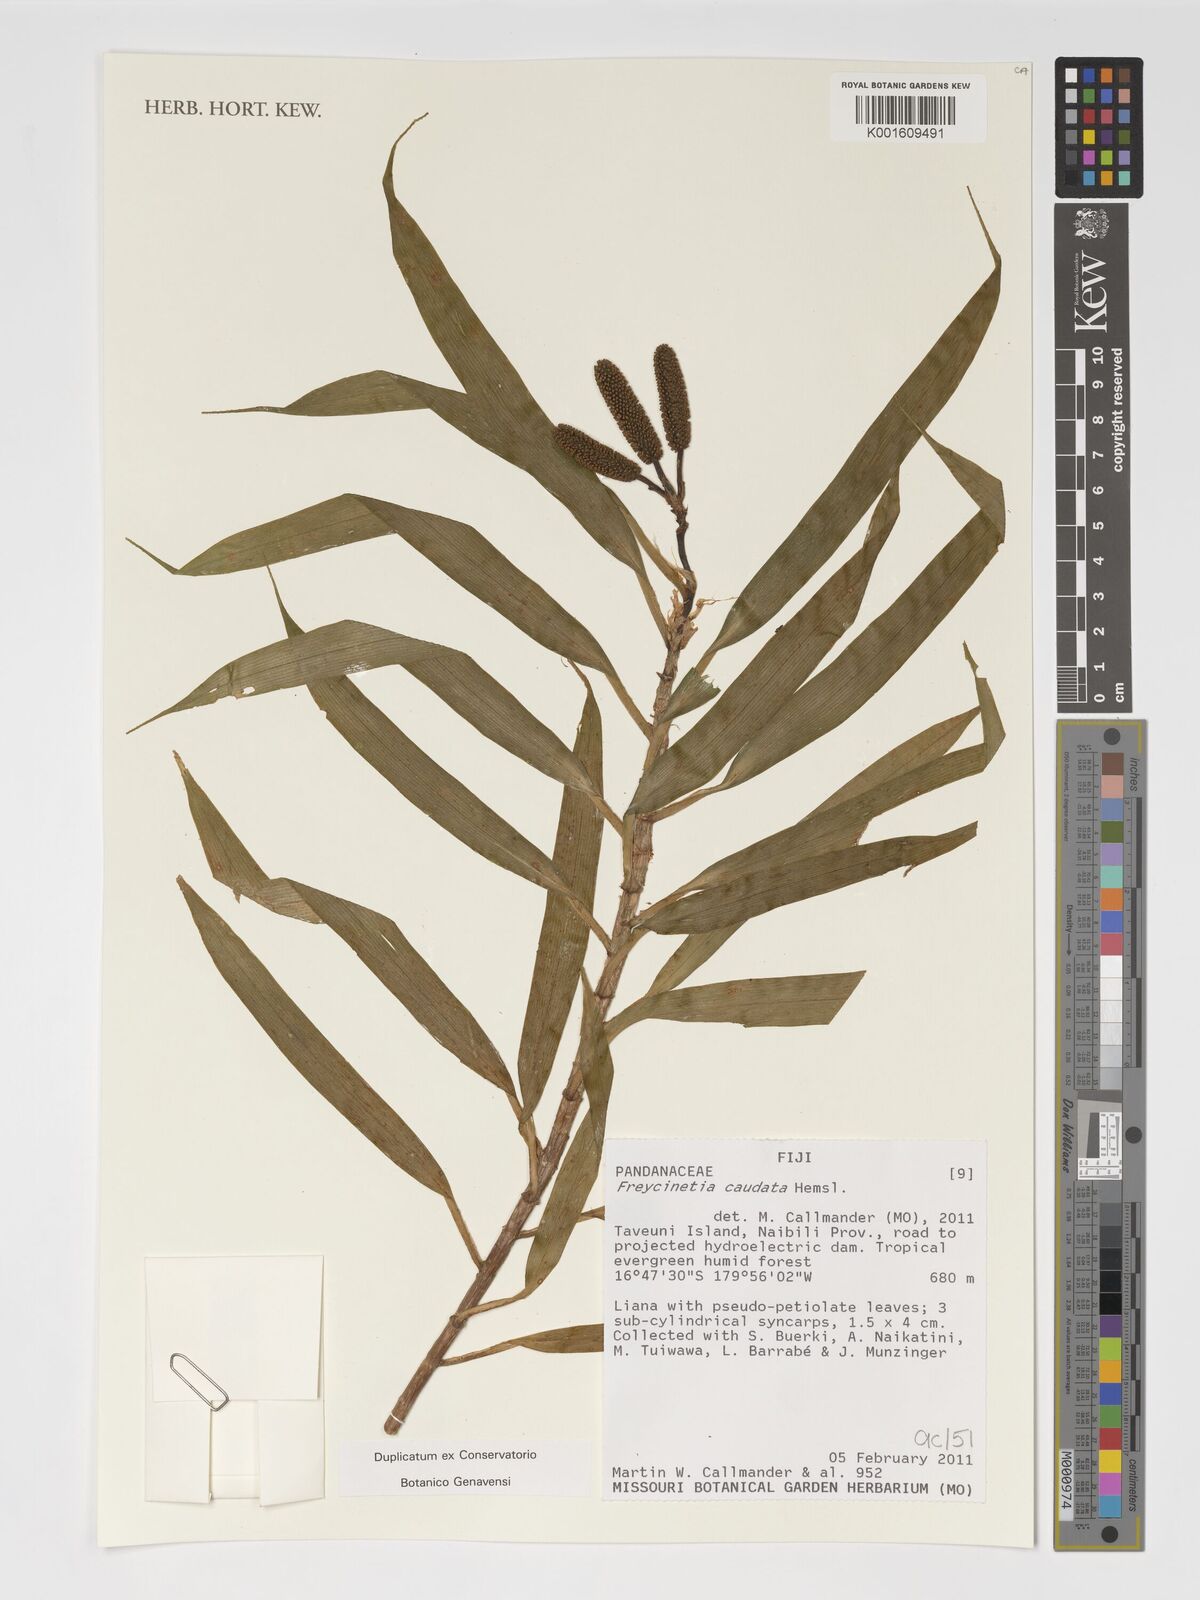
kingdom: Plantae
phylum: Tracheophyta
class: Liliopsida
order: Pandanales
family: Pandanaceae
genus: Freycinetia
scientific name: Freycinetia caudata
